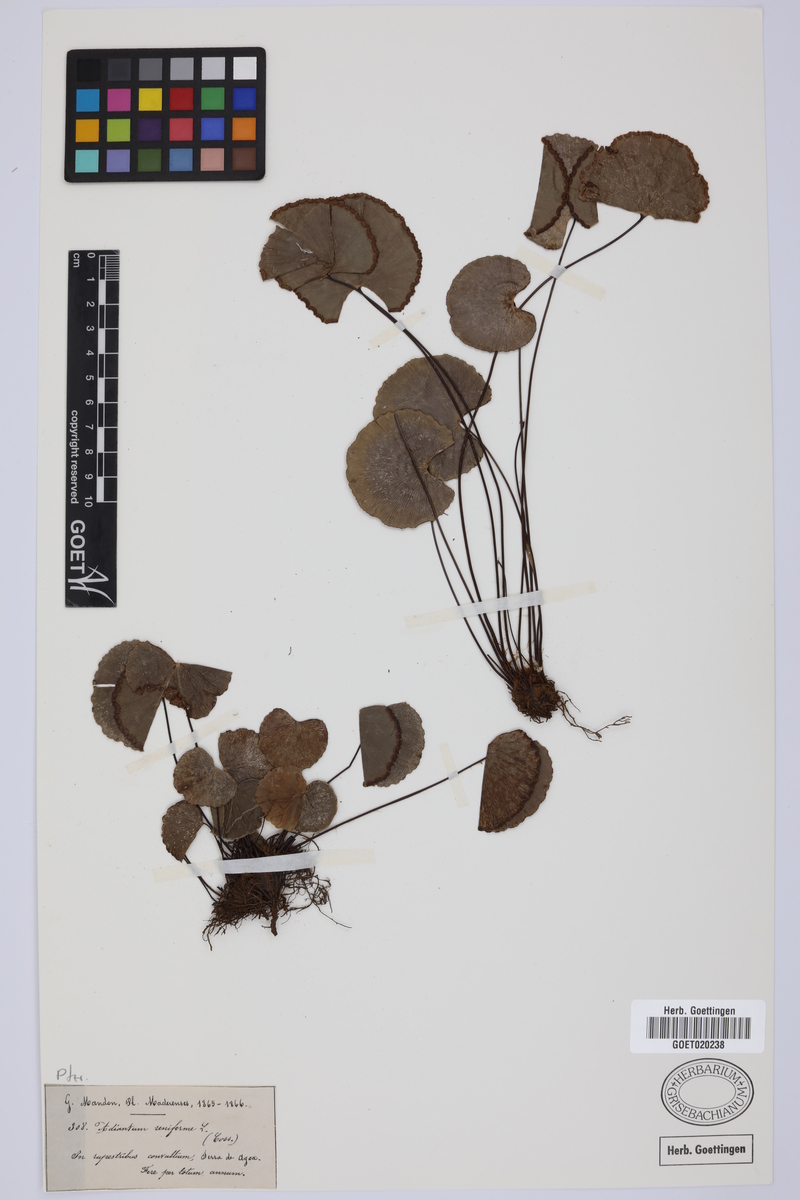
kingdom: Plantae
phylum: Tracheophyta
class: Polypodiopsida
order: Polypodiales
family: Pteridaceae
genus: Adiantum
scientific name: Adiantum reniforme
